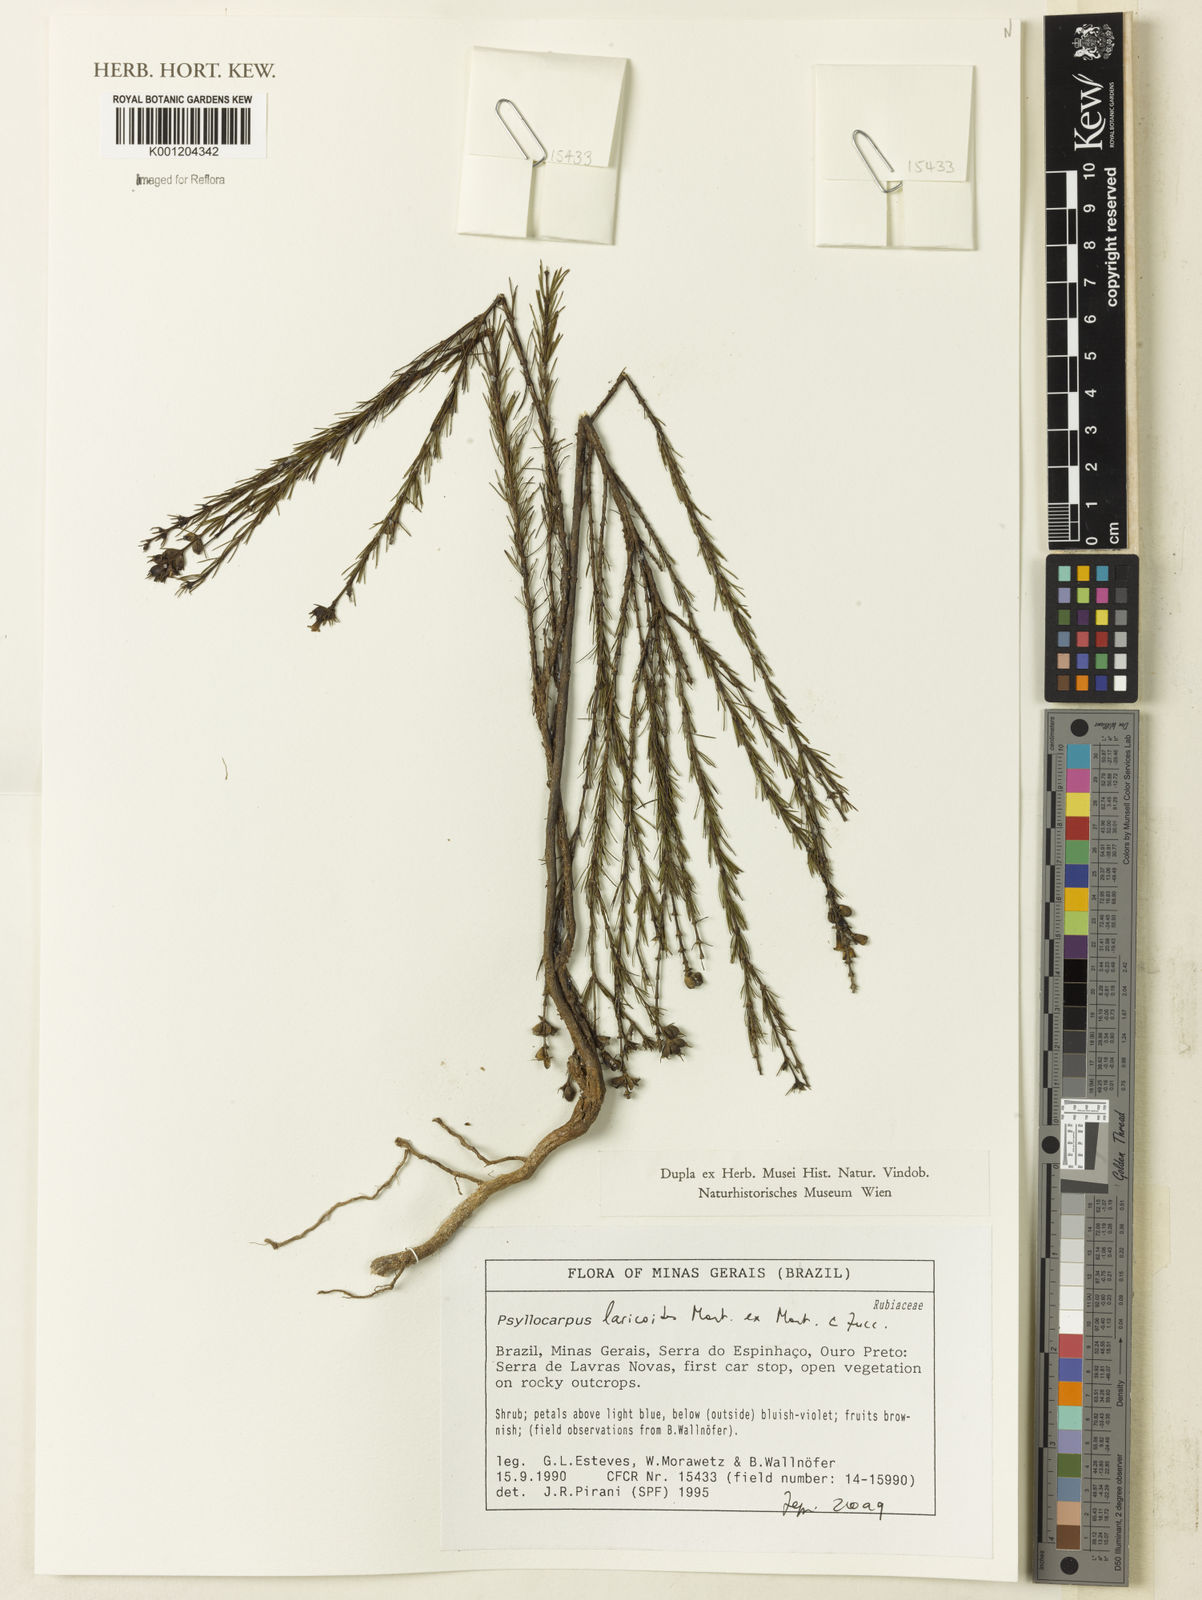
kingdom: Plantae
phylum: Tracheophyta
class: Magnoliopsida
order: Gentianales
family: Rubiaceae
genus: Psyllocarpus
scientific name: Psyllocarpus laricoides
